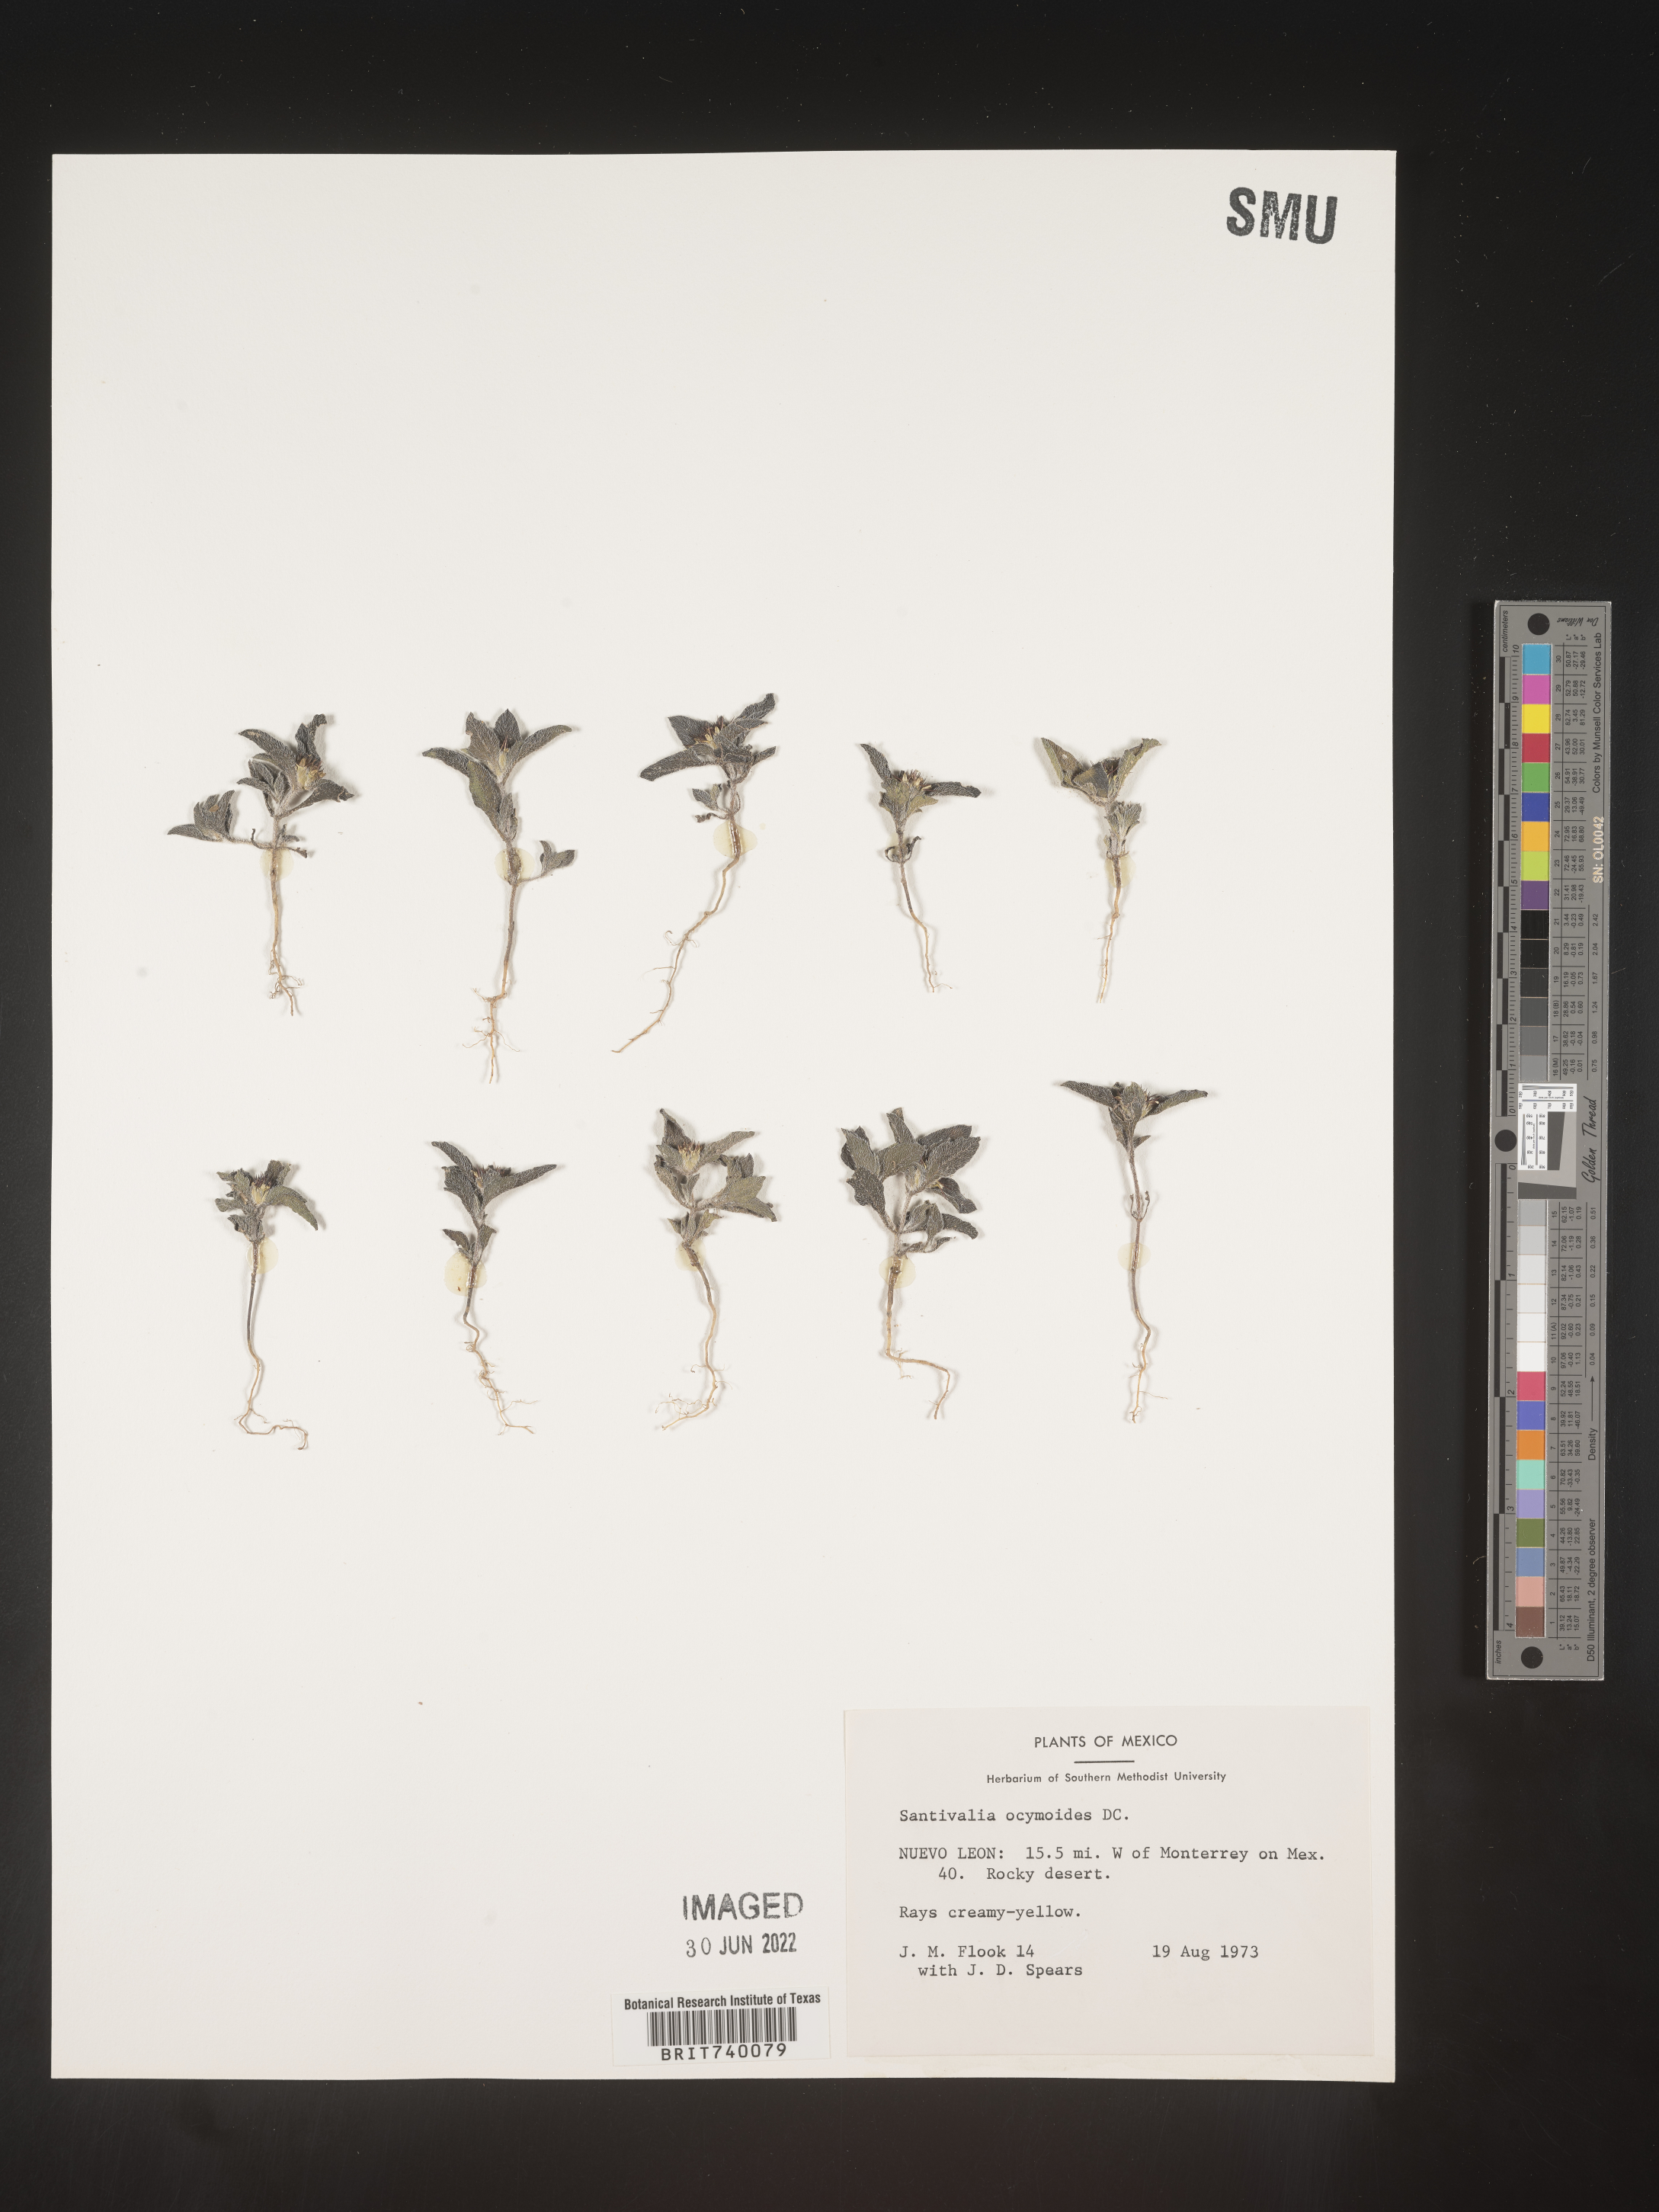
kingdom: Plantae
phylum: Tracheophyta
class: Magnoliopsida
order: Asterales
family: Asteraceae
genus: Sanvitalia
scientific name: Sanvitalia
